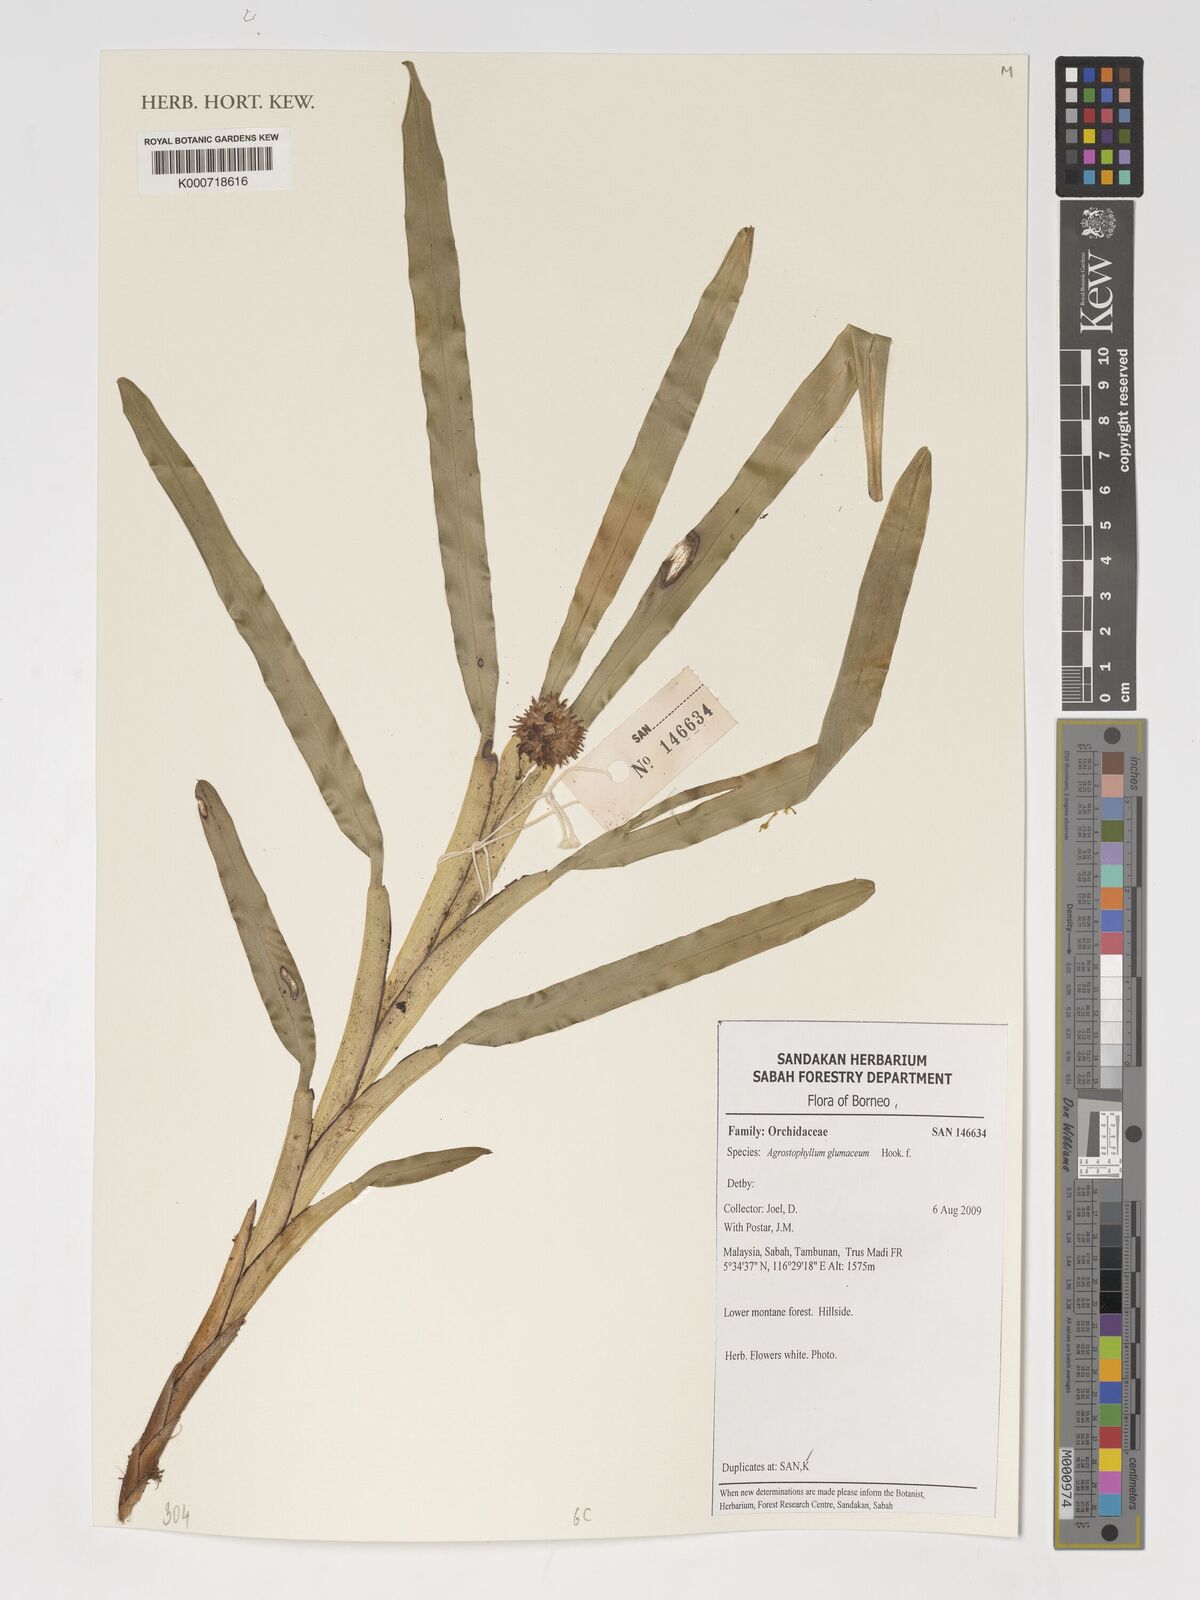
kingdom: Plantae
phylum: Tracheophyta
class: Liliopsida
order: Asparagales
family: Orchidaceae
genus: Agrostophyllum
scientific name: Agrostophyllum glumaceum
